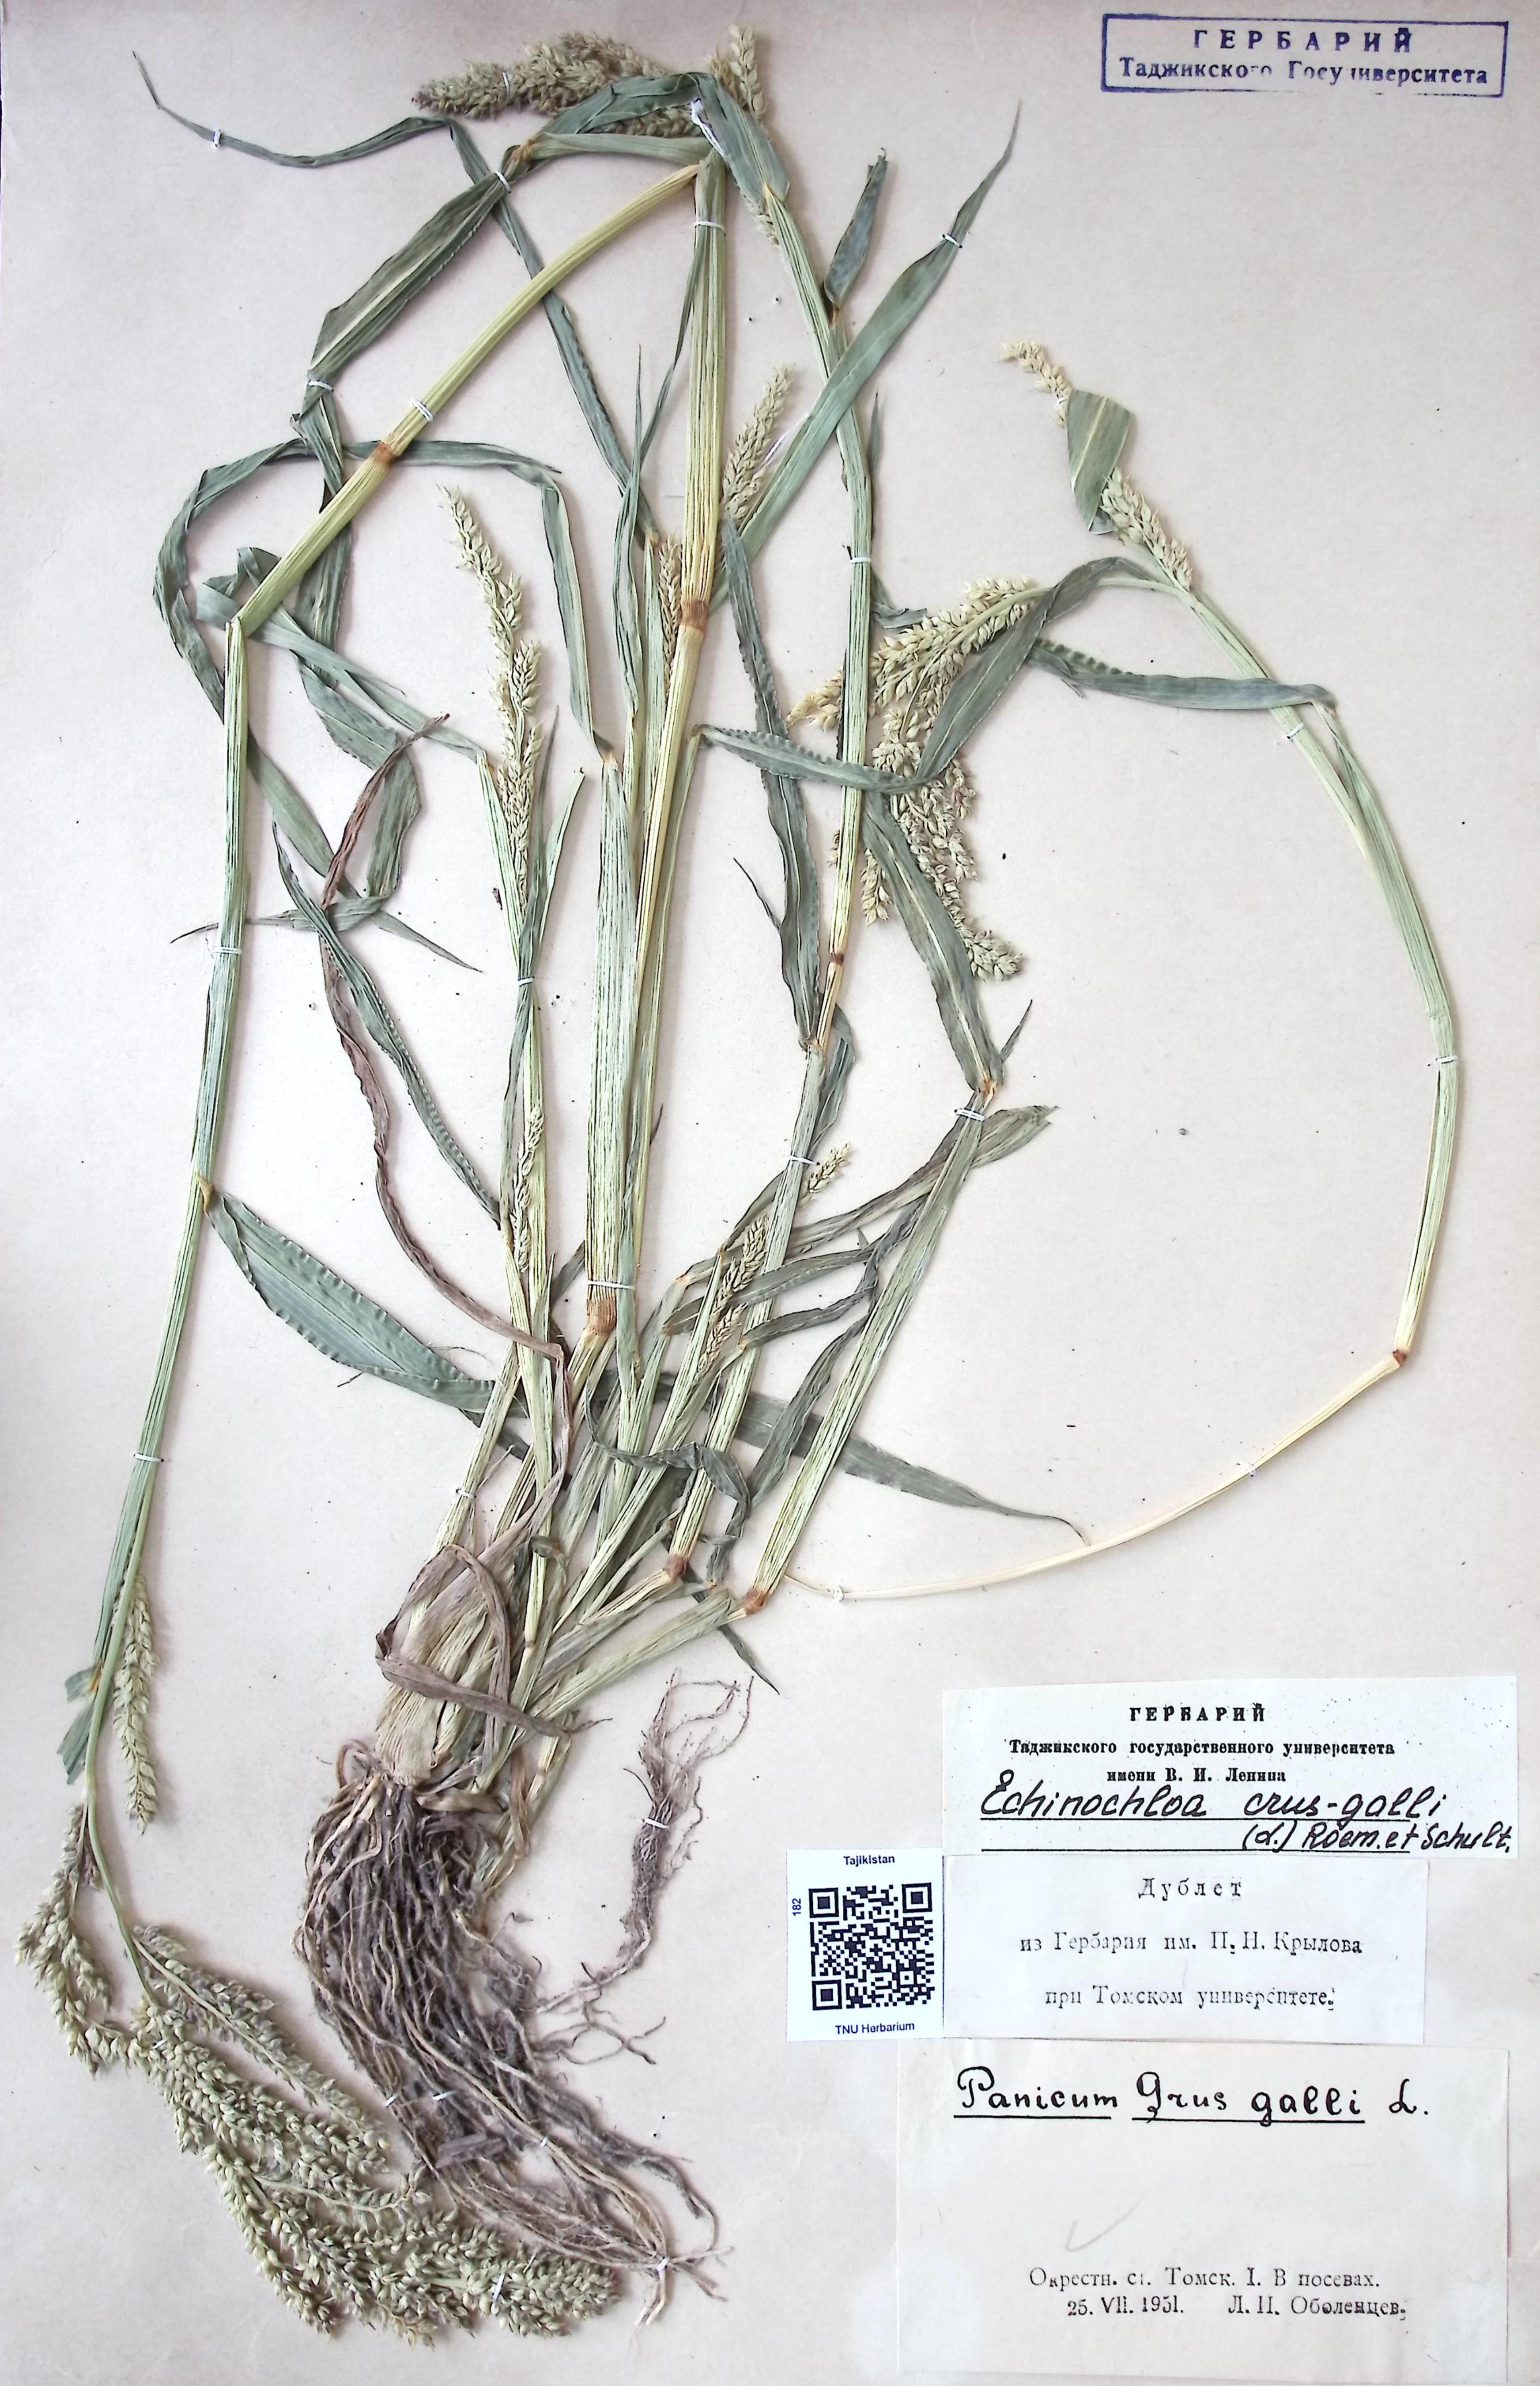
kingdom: Plantae
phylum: Tracheophyta
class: Liliopsida
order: Poales
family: Poaceae
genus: Echinochloa
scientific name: Echinochloa crus-galli
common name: Cockspur
